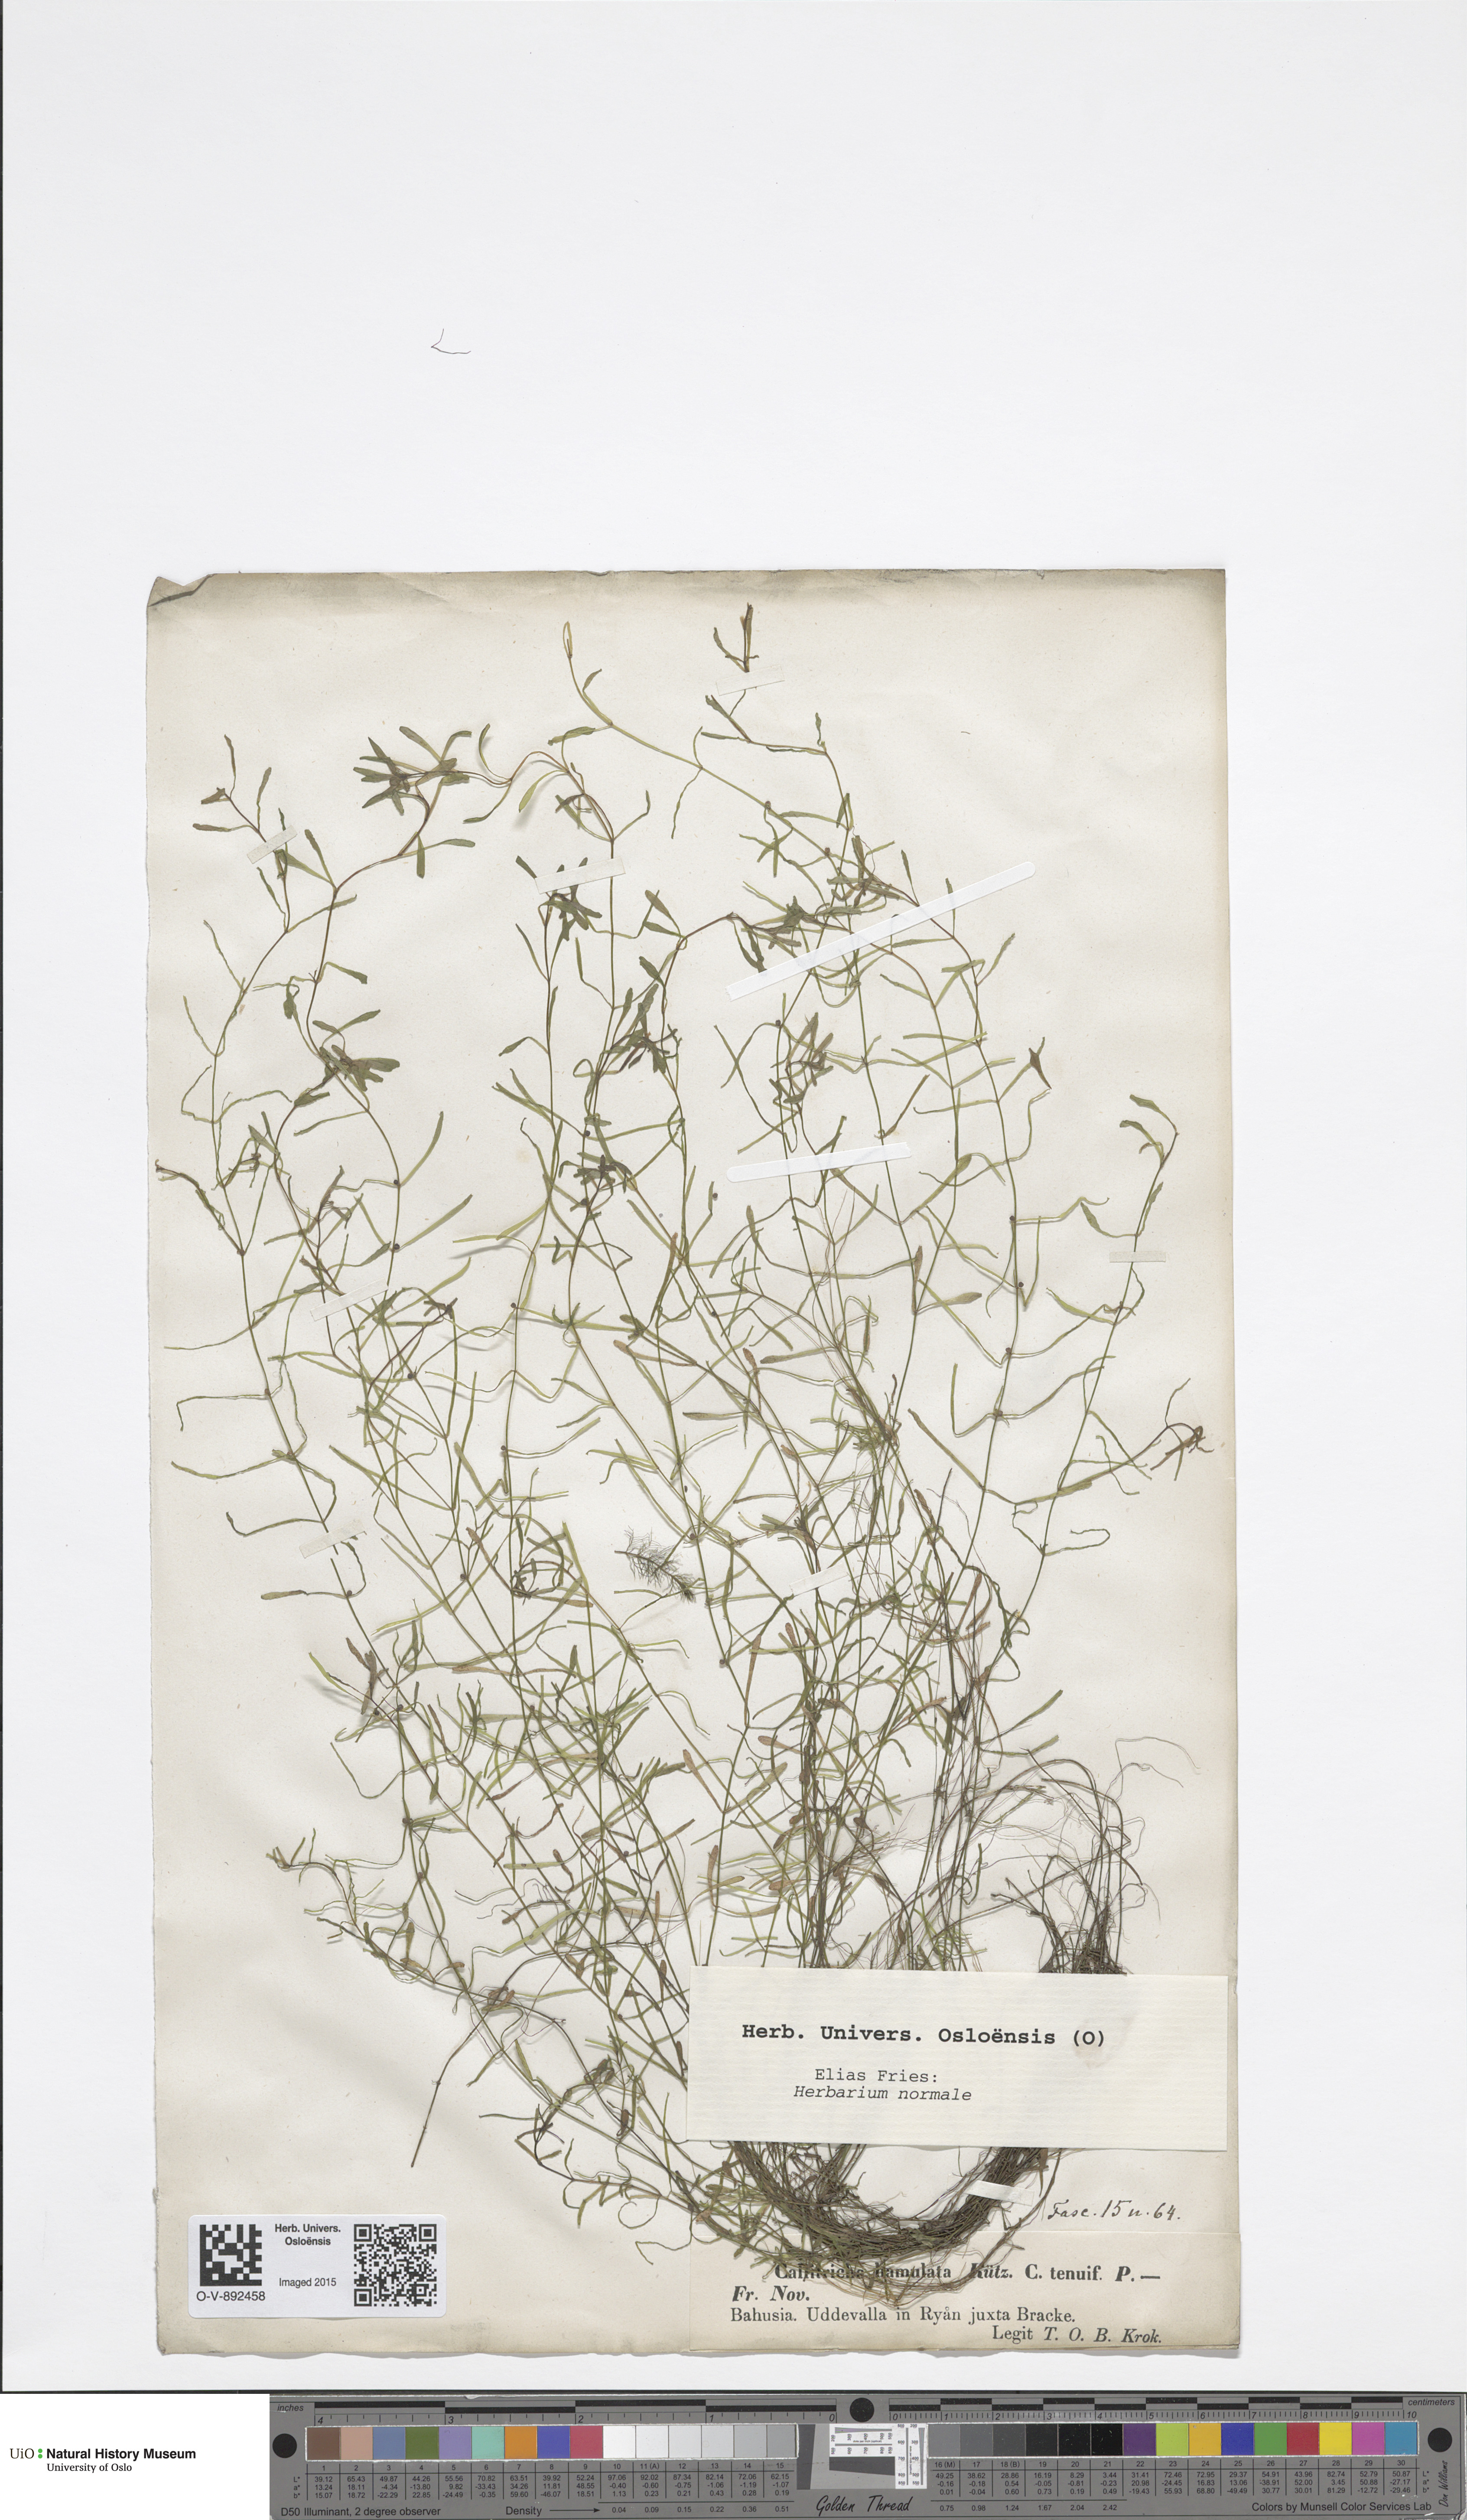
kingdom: Plantae
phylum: Tracheophyta
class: Magnoliopsida
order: Lamiales
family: Plantaginaceae
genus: Callitriche
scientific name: Callitriche hamulata
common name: Intermediate water-starwort
